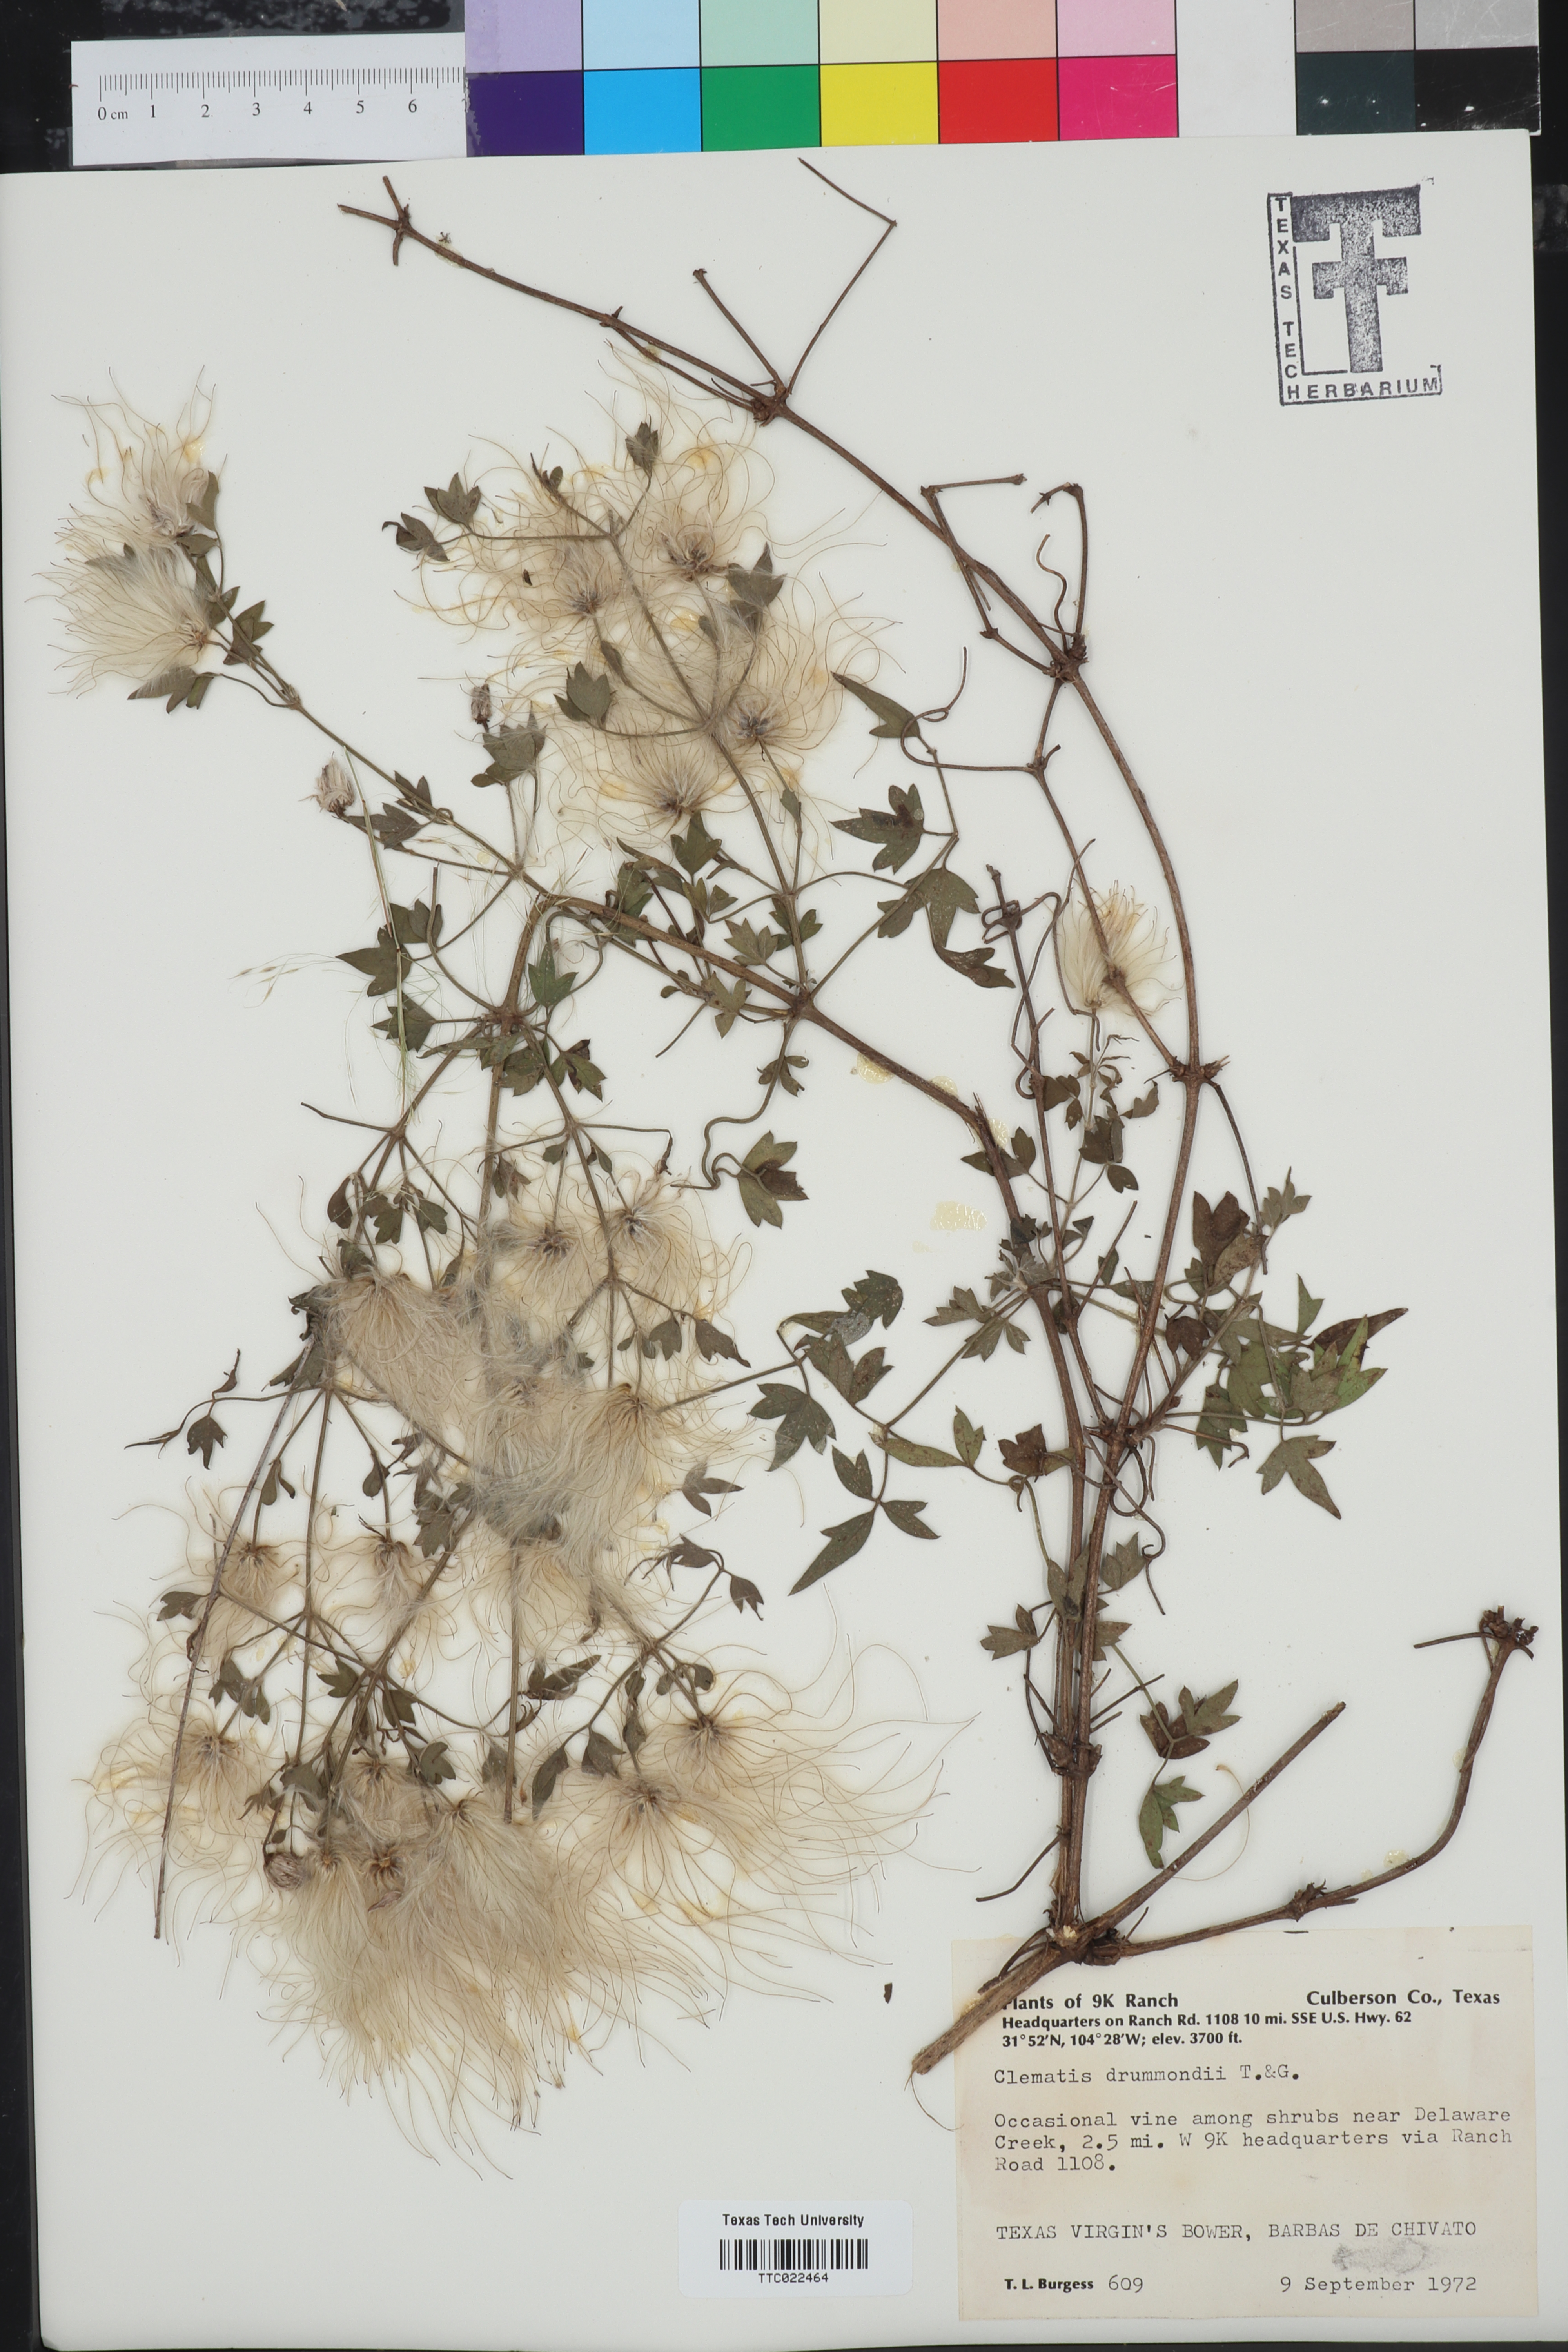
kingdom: Plantae
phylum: Tracheophyta
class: Magnoliopsida
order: Ranunculales
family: Ranunculaceae
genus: Clematis
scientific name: Clematis drummondii
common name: Texas virgin's bower
